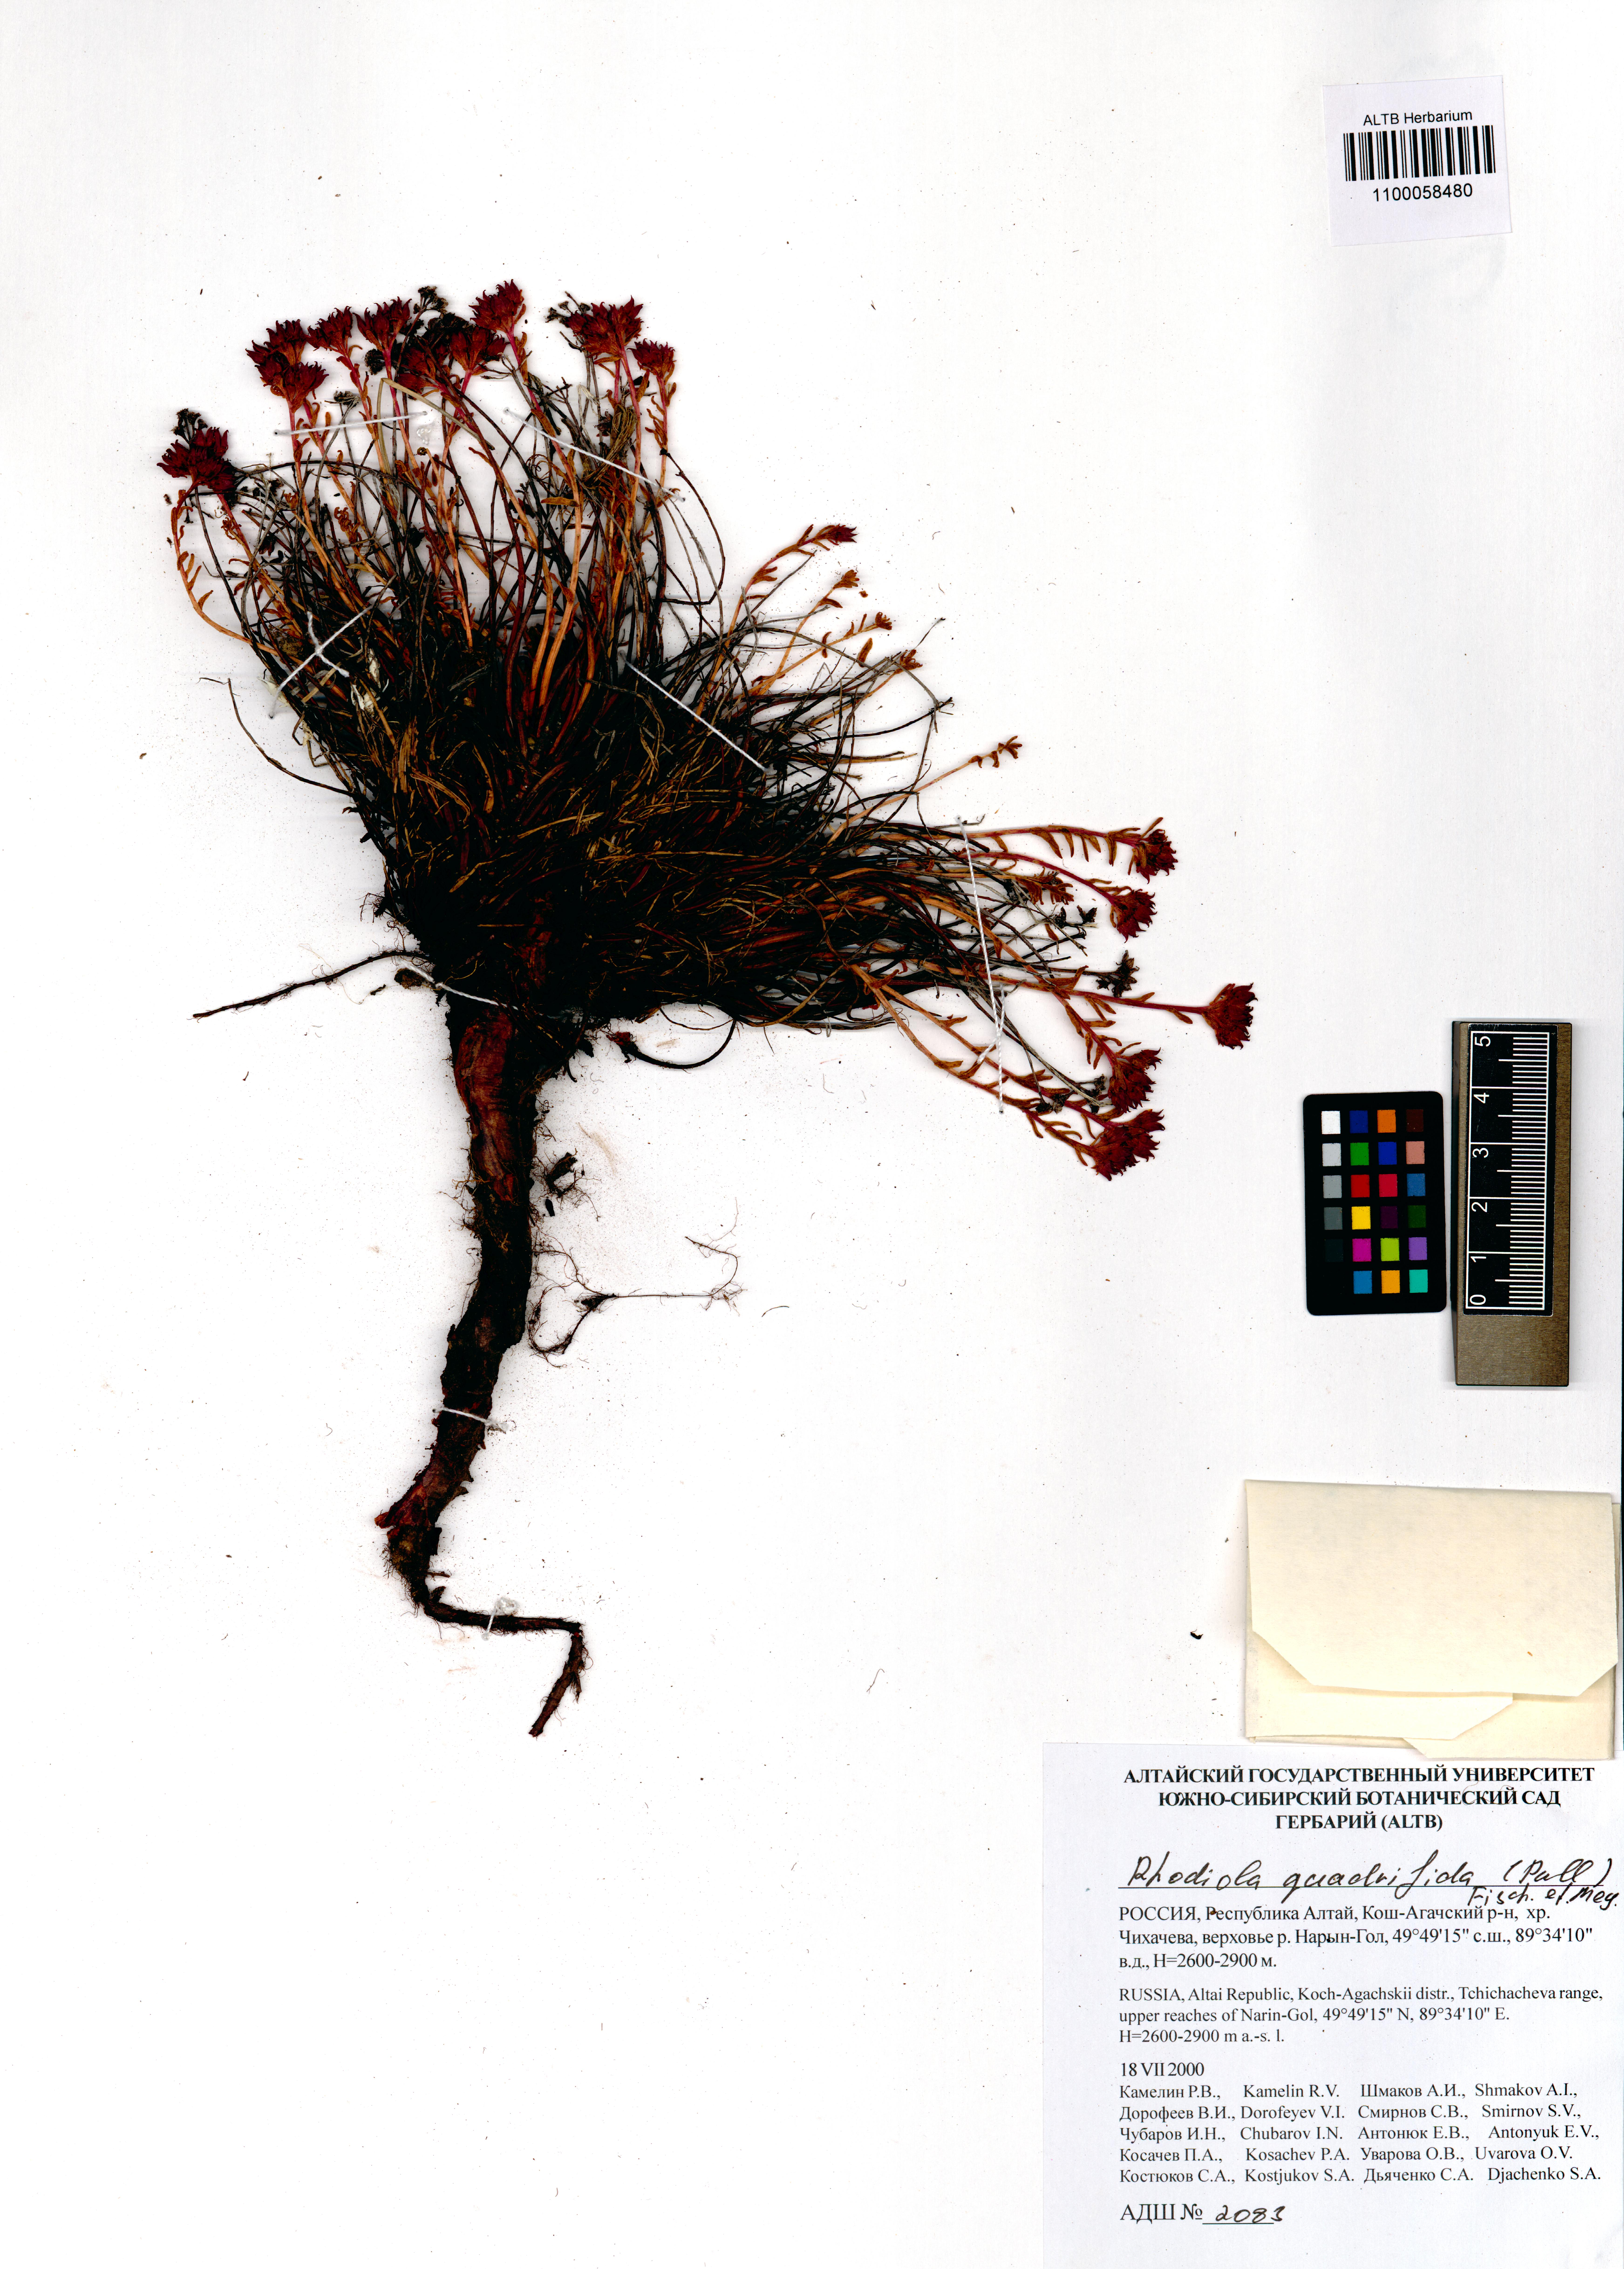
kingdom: Plantae
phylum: Tracheophyta
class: Magnoliopsida
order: Saxifragales
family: Crassulaceae
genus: Rhodiola
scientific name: Rhodiola quadrifida
